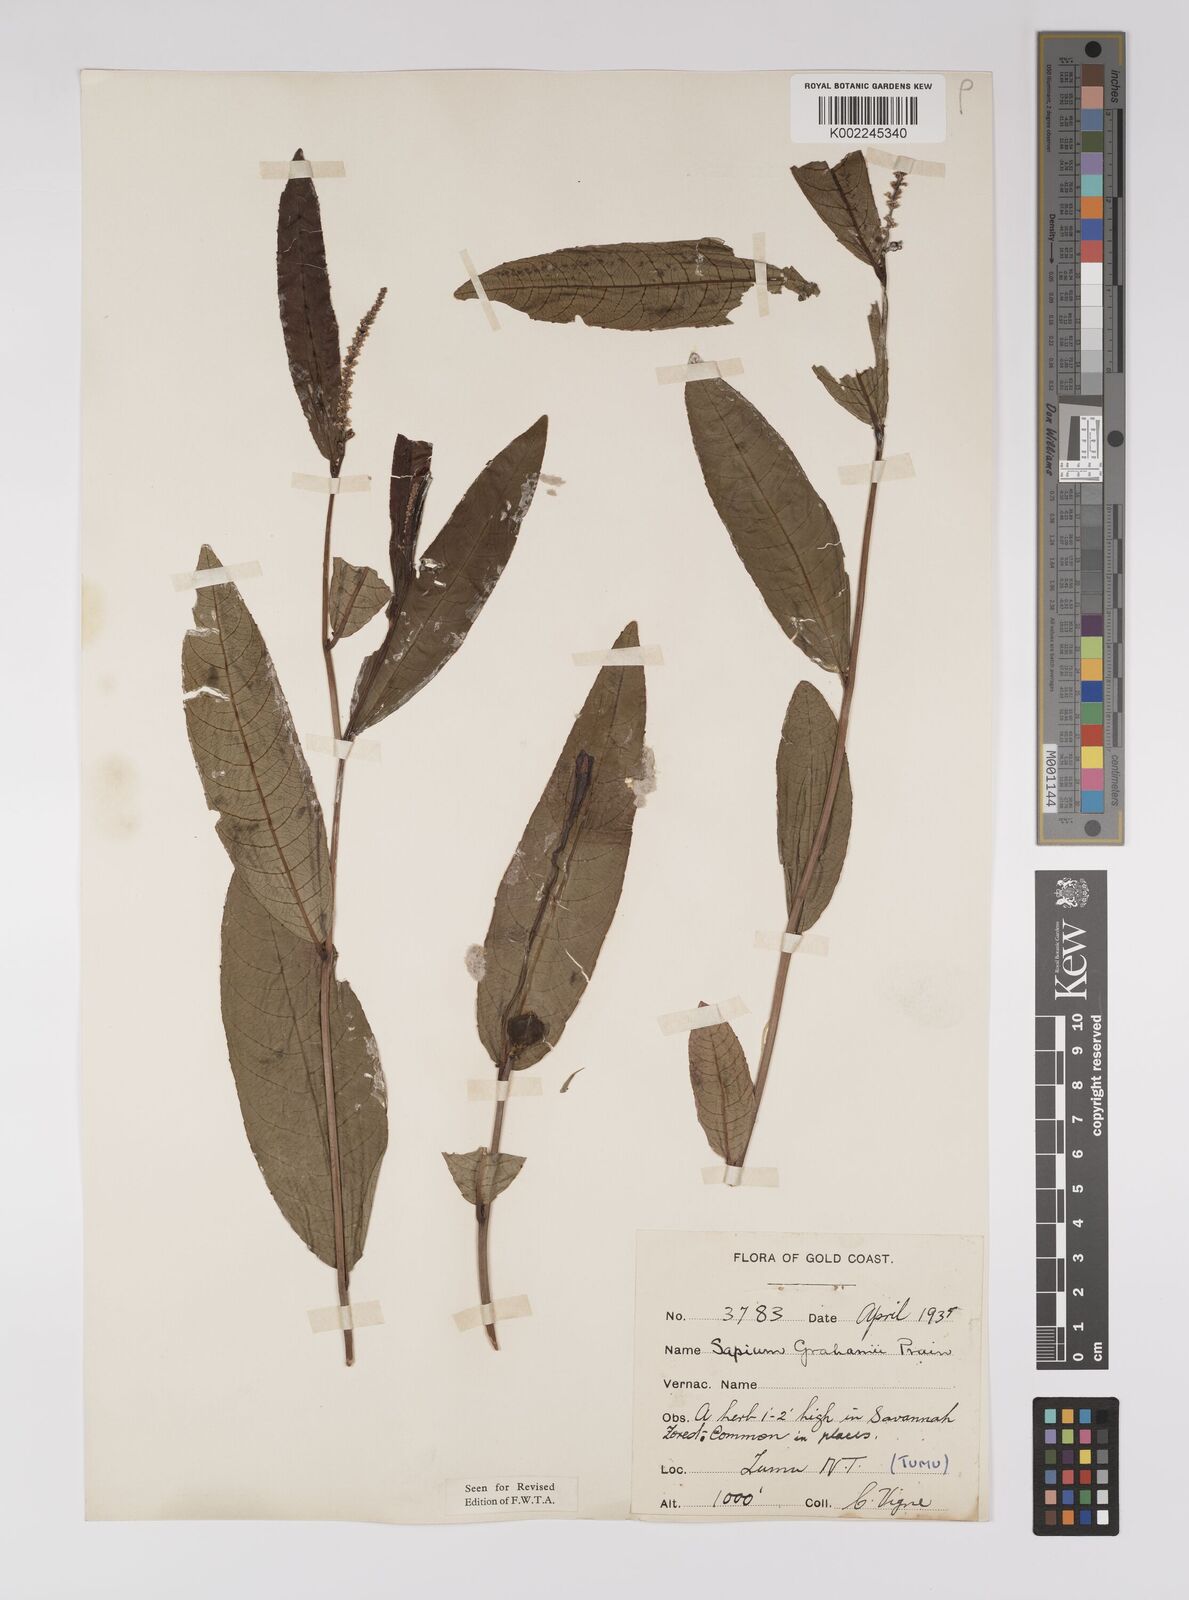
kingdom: Plantae
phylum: Tracheophyta
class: Magnoliopsida
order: Malpighiales
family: Euphorbiaceae
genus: Excoecaria
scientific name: Excoecaria grahamii
